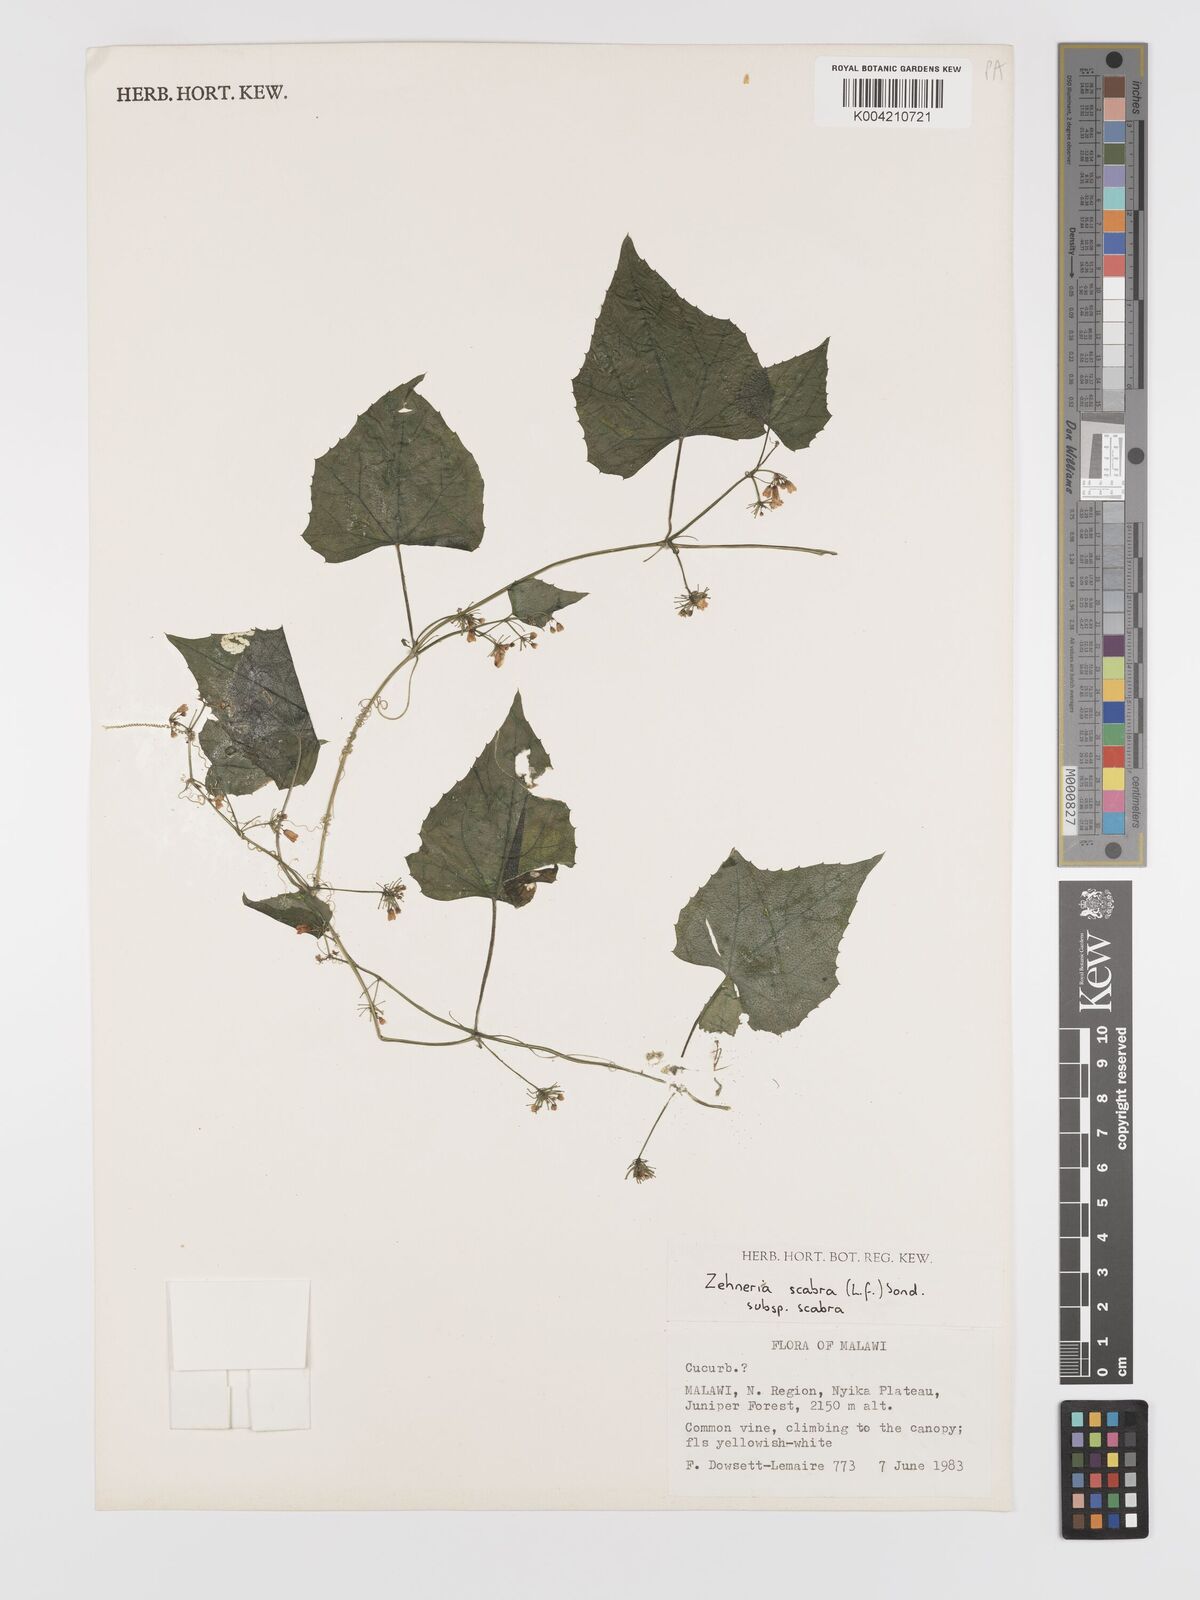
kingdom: Plantae
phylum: Tracheophyta
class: Magnoliopsida
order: Cucurbitales
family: Cucurbitaceae
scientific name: Cucurbitaceae
